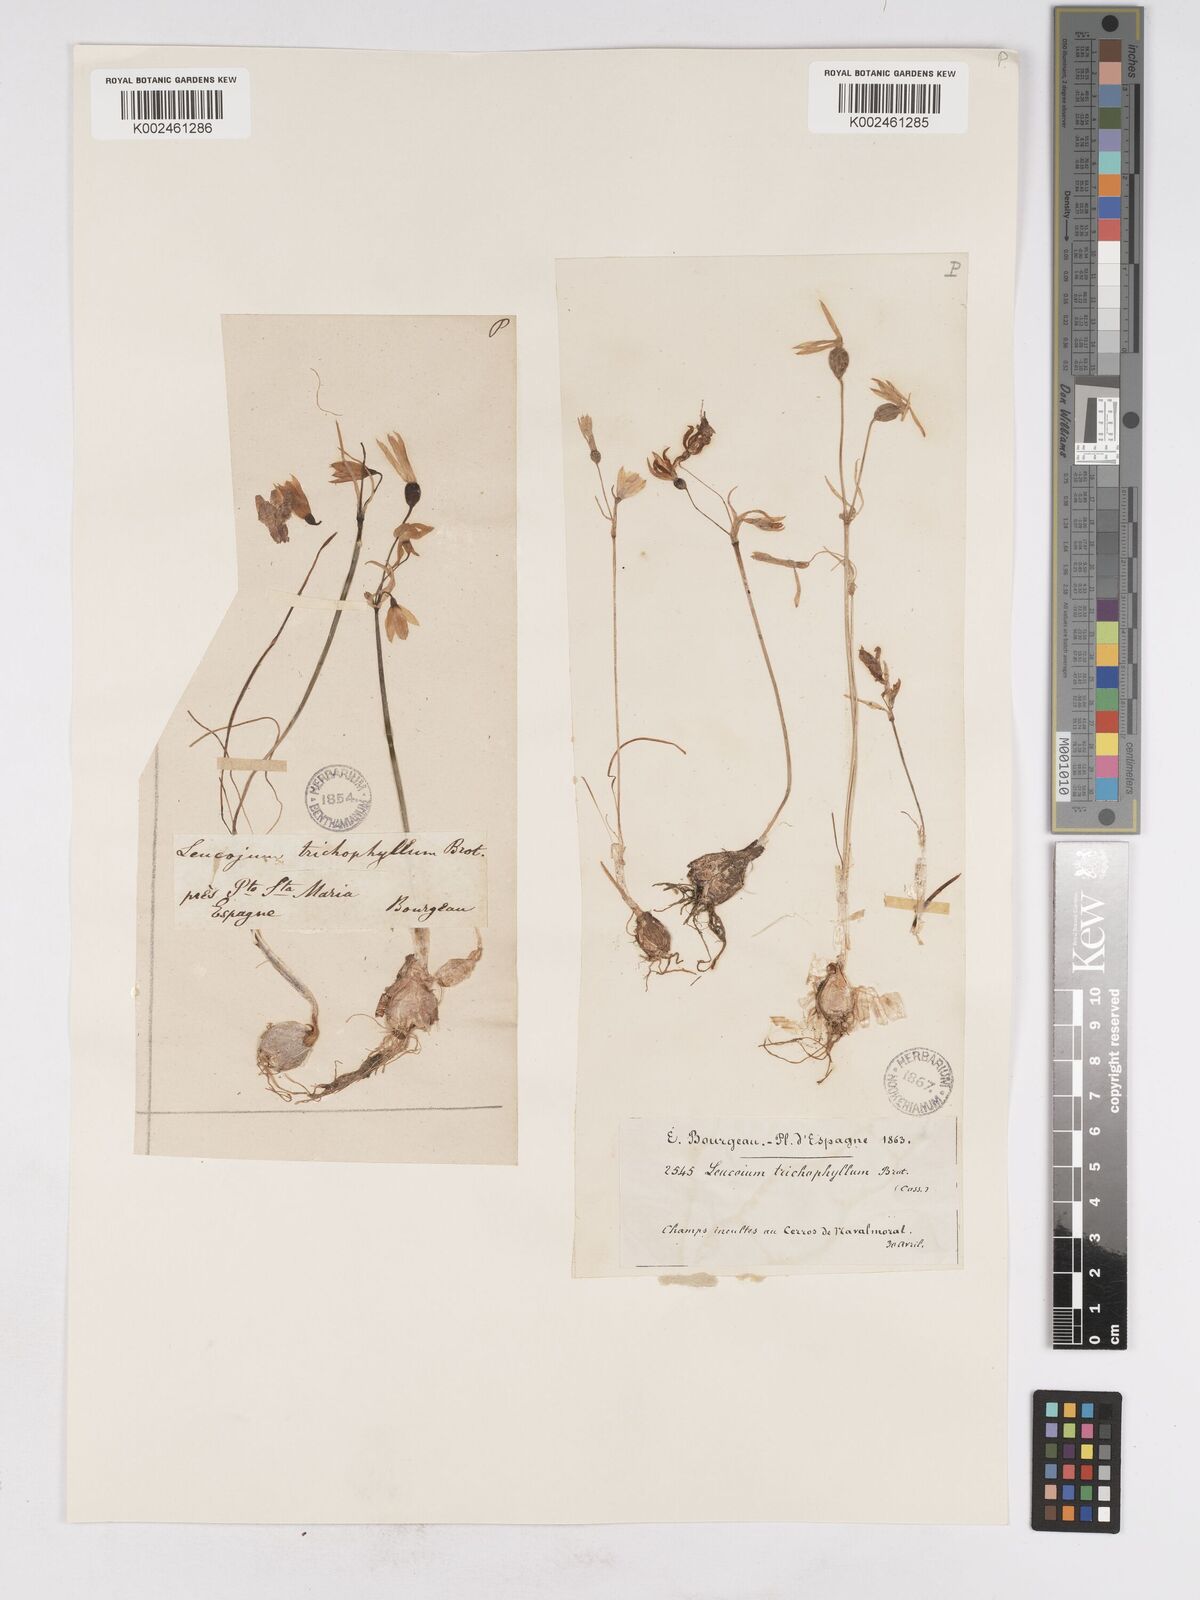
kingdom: Plantae
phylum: Tracheophyta
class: Liliopsida
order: Asparagales
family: Amaryllidaceae
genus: Acis
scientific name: Acis trichophylla
